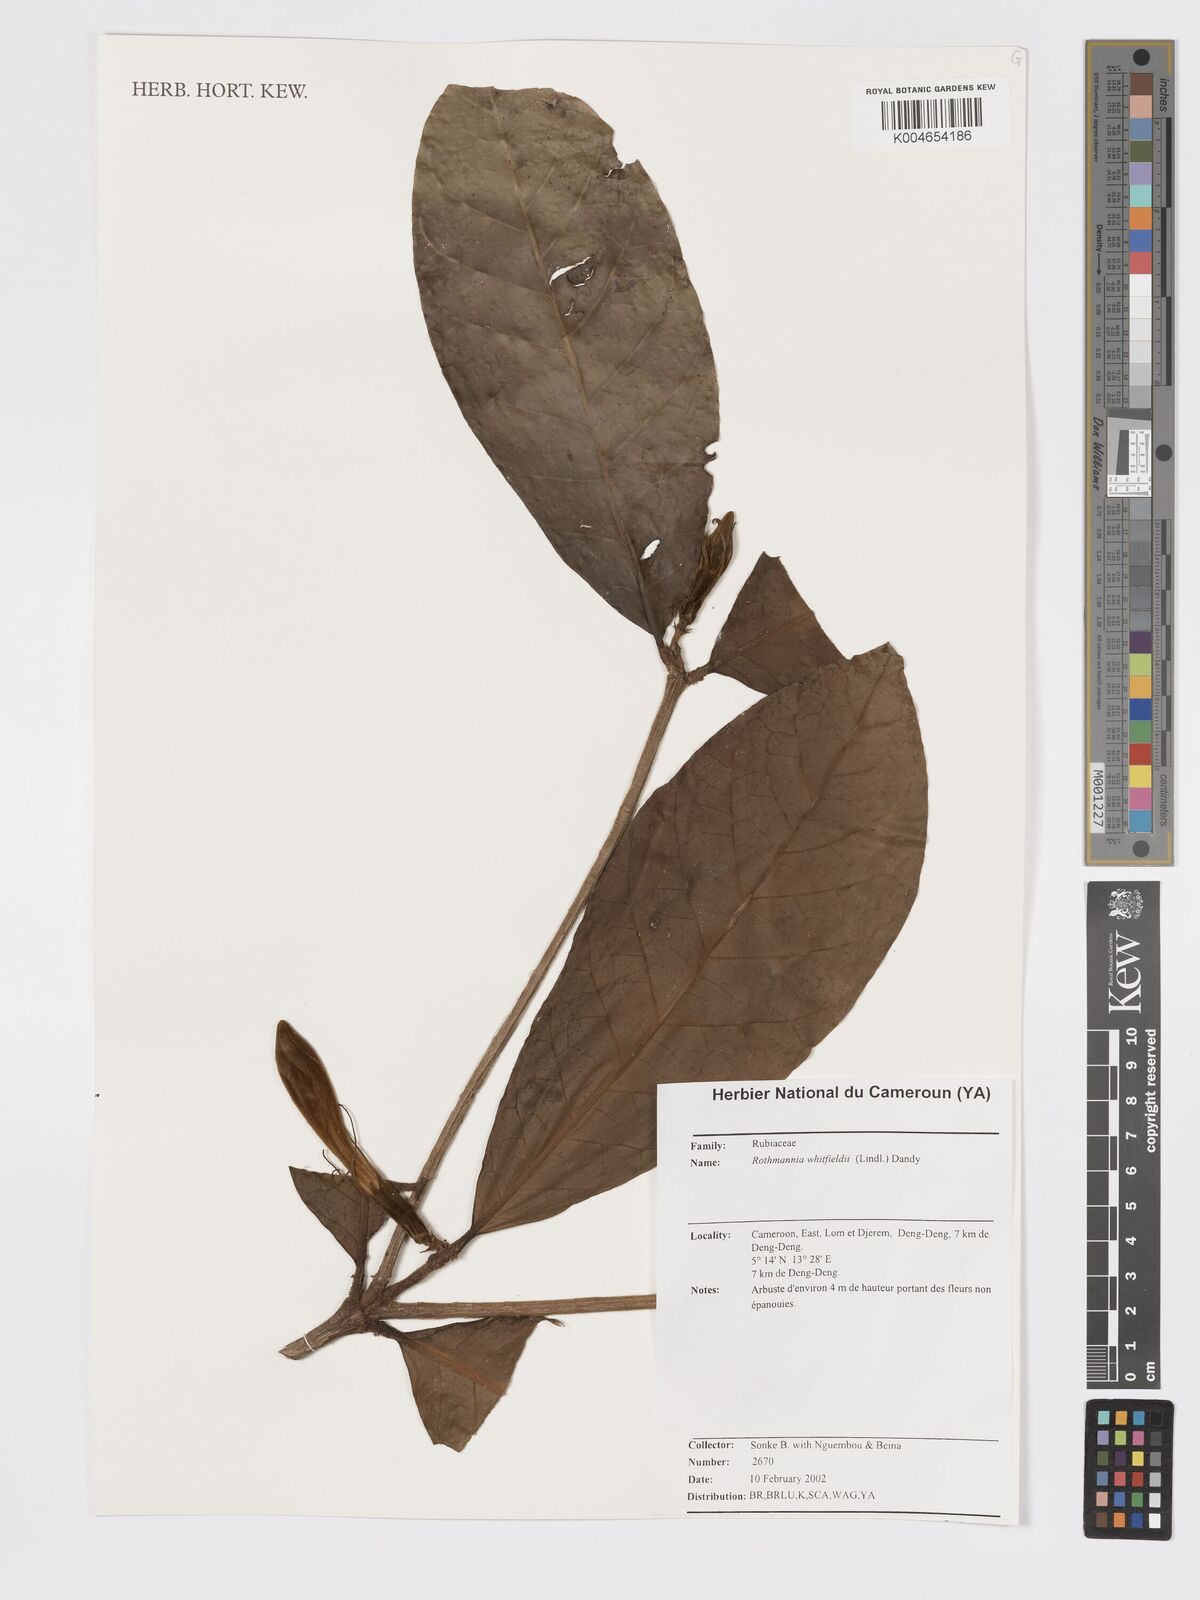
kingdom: Plantae
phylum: Tracheophyta
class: Magnoliopsida
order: Gentianales
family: Rubiaceae
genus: Rothmannia
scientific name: Rothmannia whitfieldii
